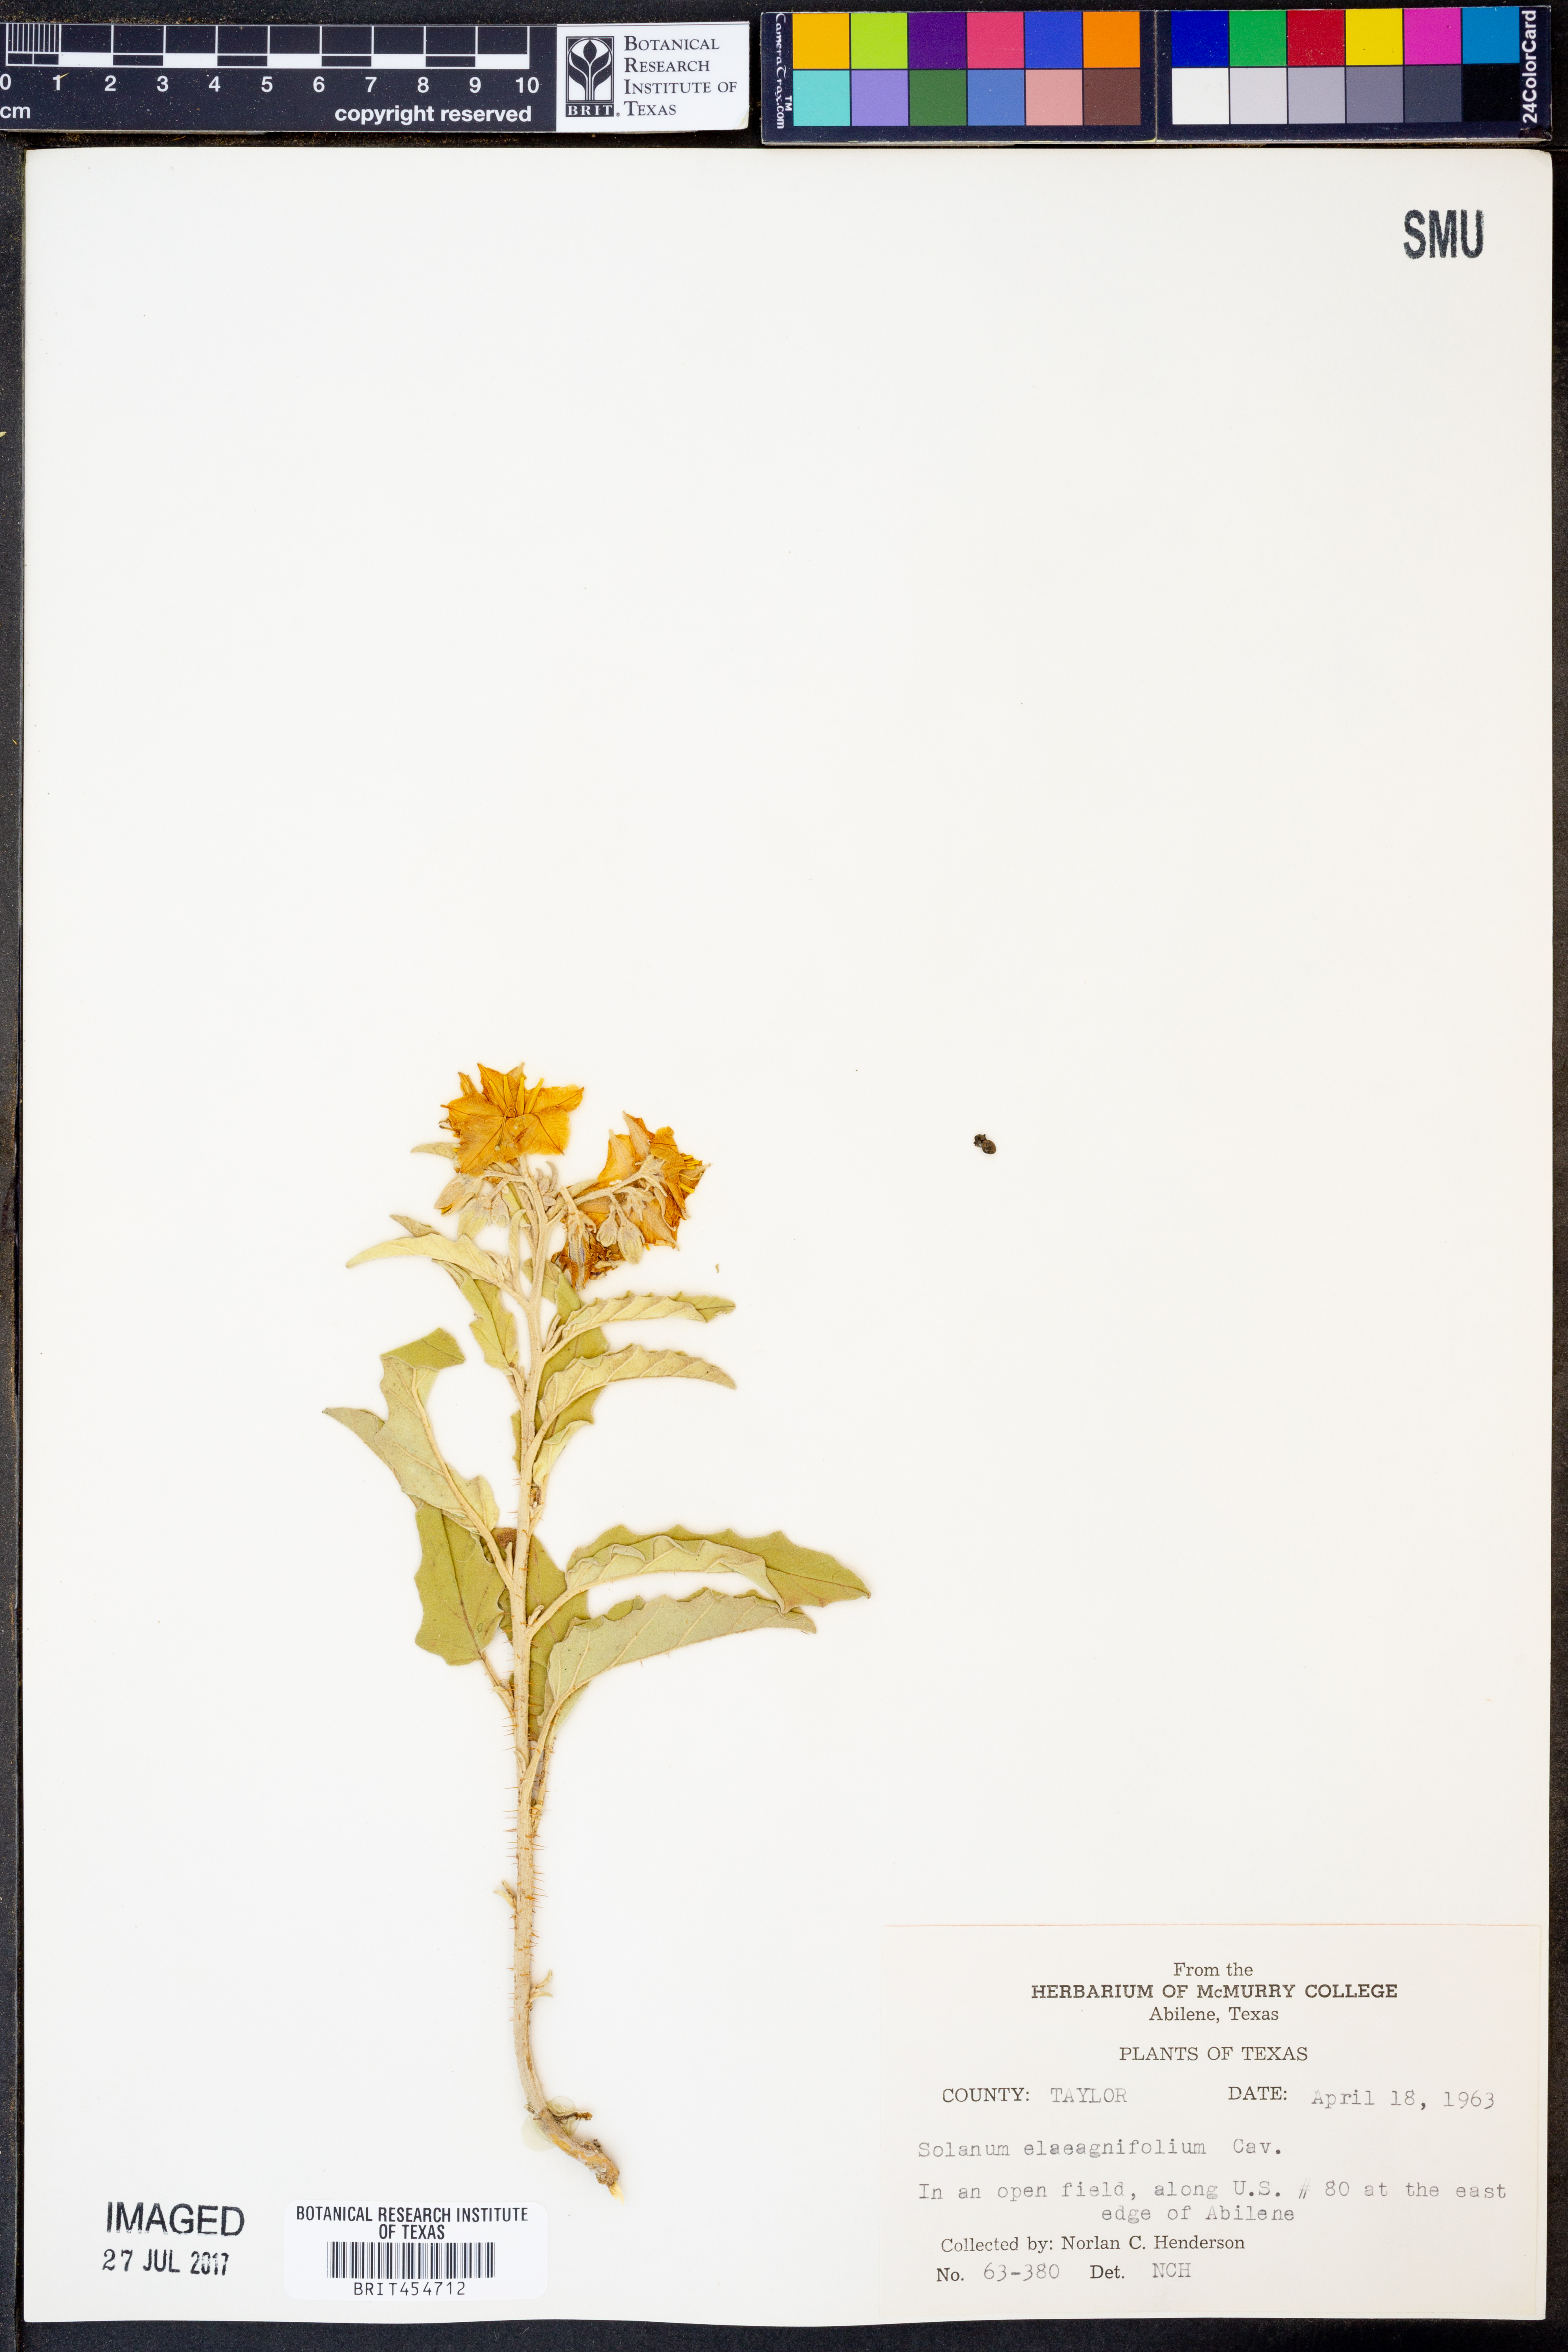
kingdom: Plantae
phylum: Tracheophyta
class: Magnoliopsida
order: Solanales
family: Solanaceae
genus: Solanum
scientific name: Solanum elaeagnifolium
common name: Silverleaf nightshade
